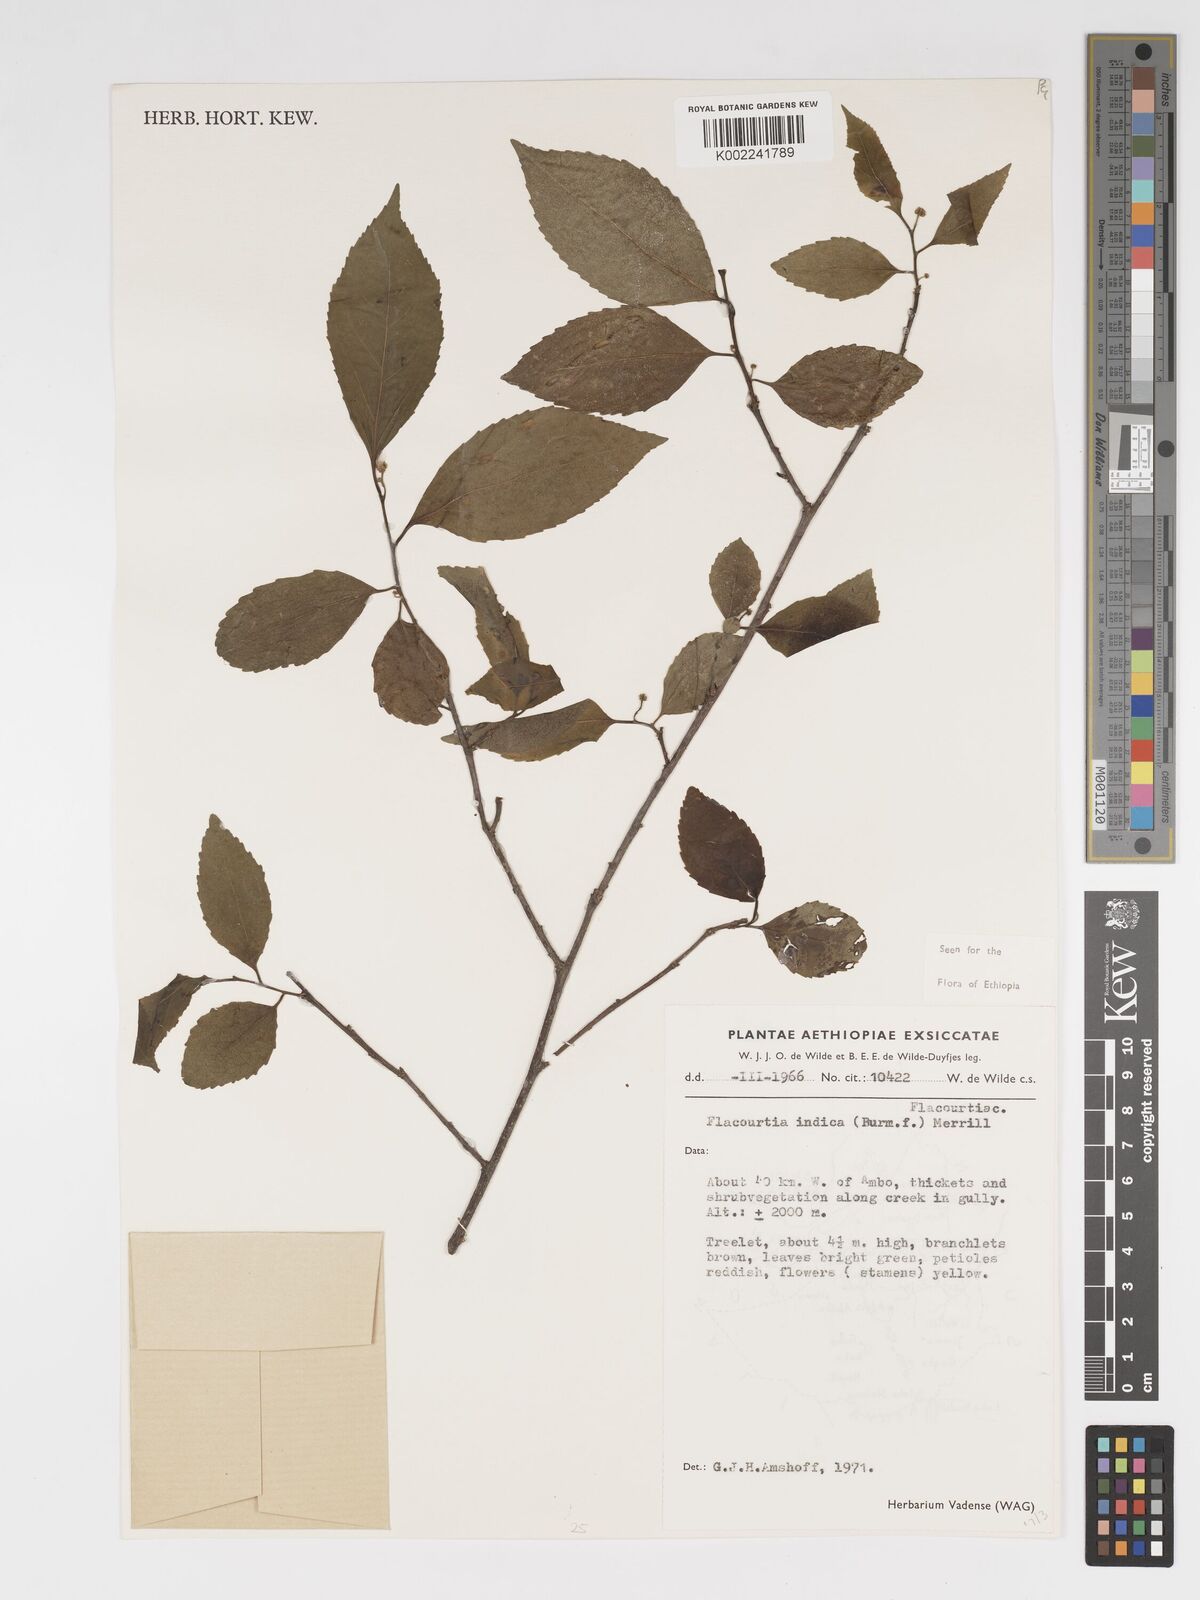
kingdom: Plantae
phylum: Tracheophyta
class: Magnoliopsida
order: Malpighiales
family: Salicaceae
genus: Flacourtia
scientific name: Flacourtia indica
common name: Governor's plum
